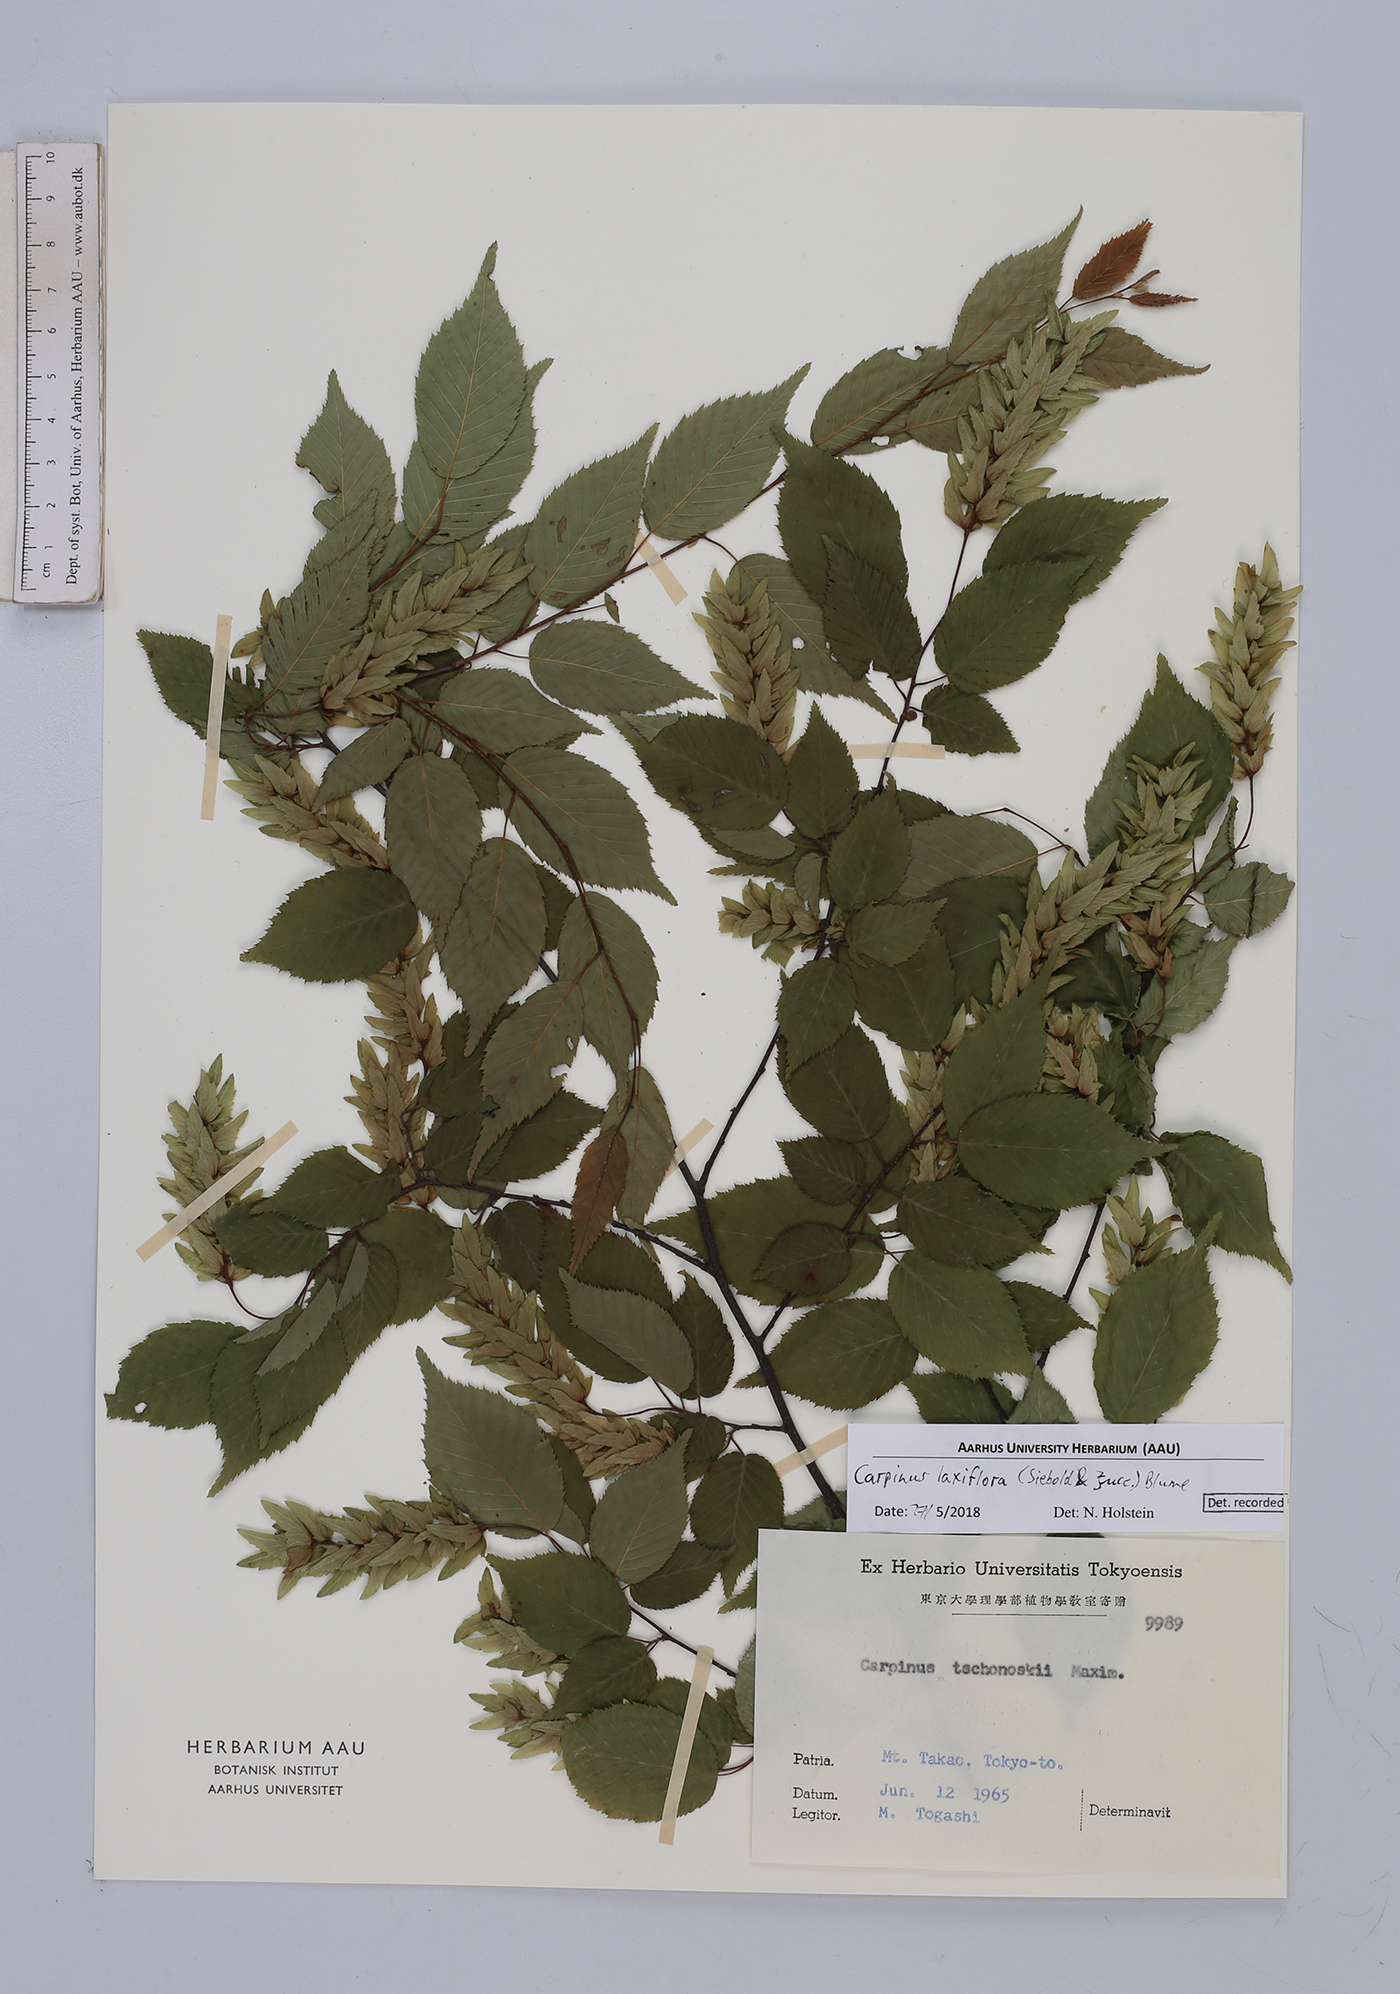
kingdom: Plantae
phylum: Tracheophyta
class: Magnoliopsida
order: Fagales
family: Betulaceae
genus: Carpinus
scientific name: Carpinus laxiflora
